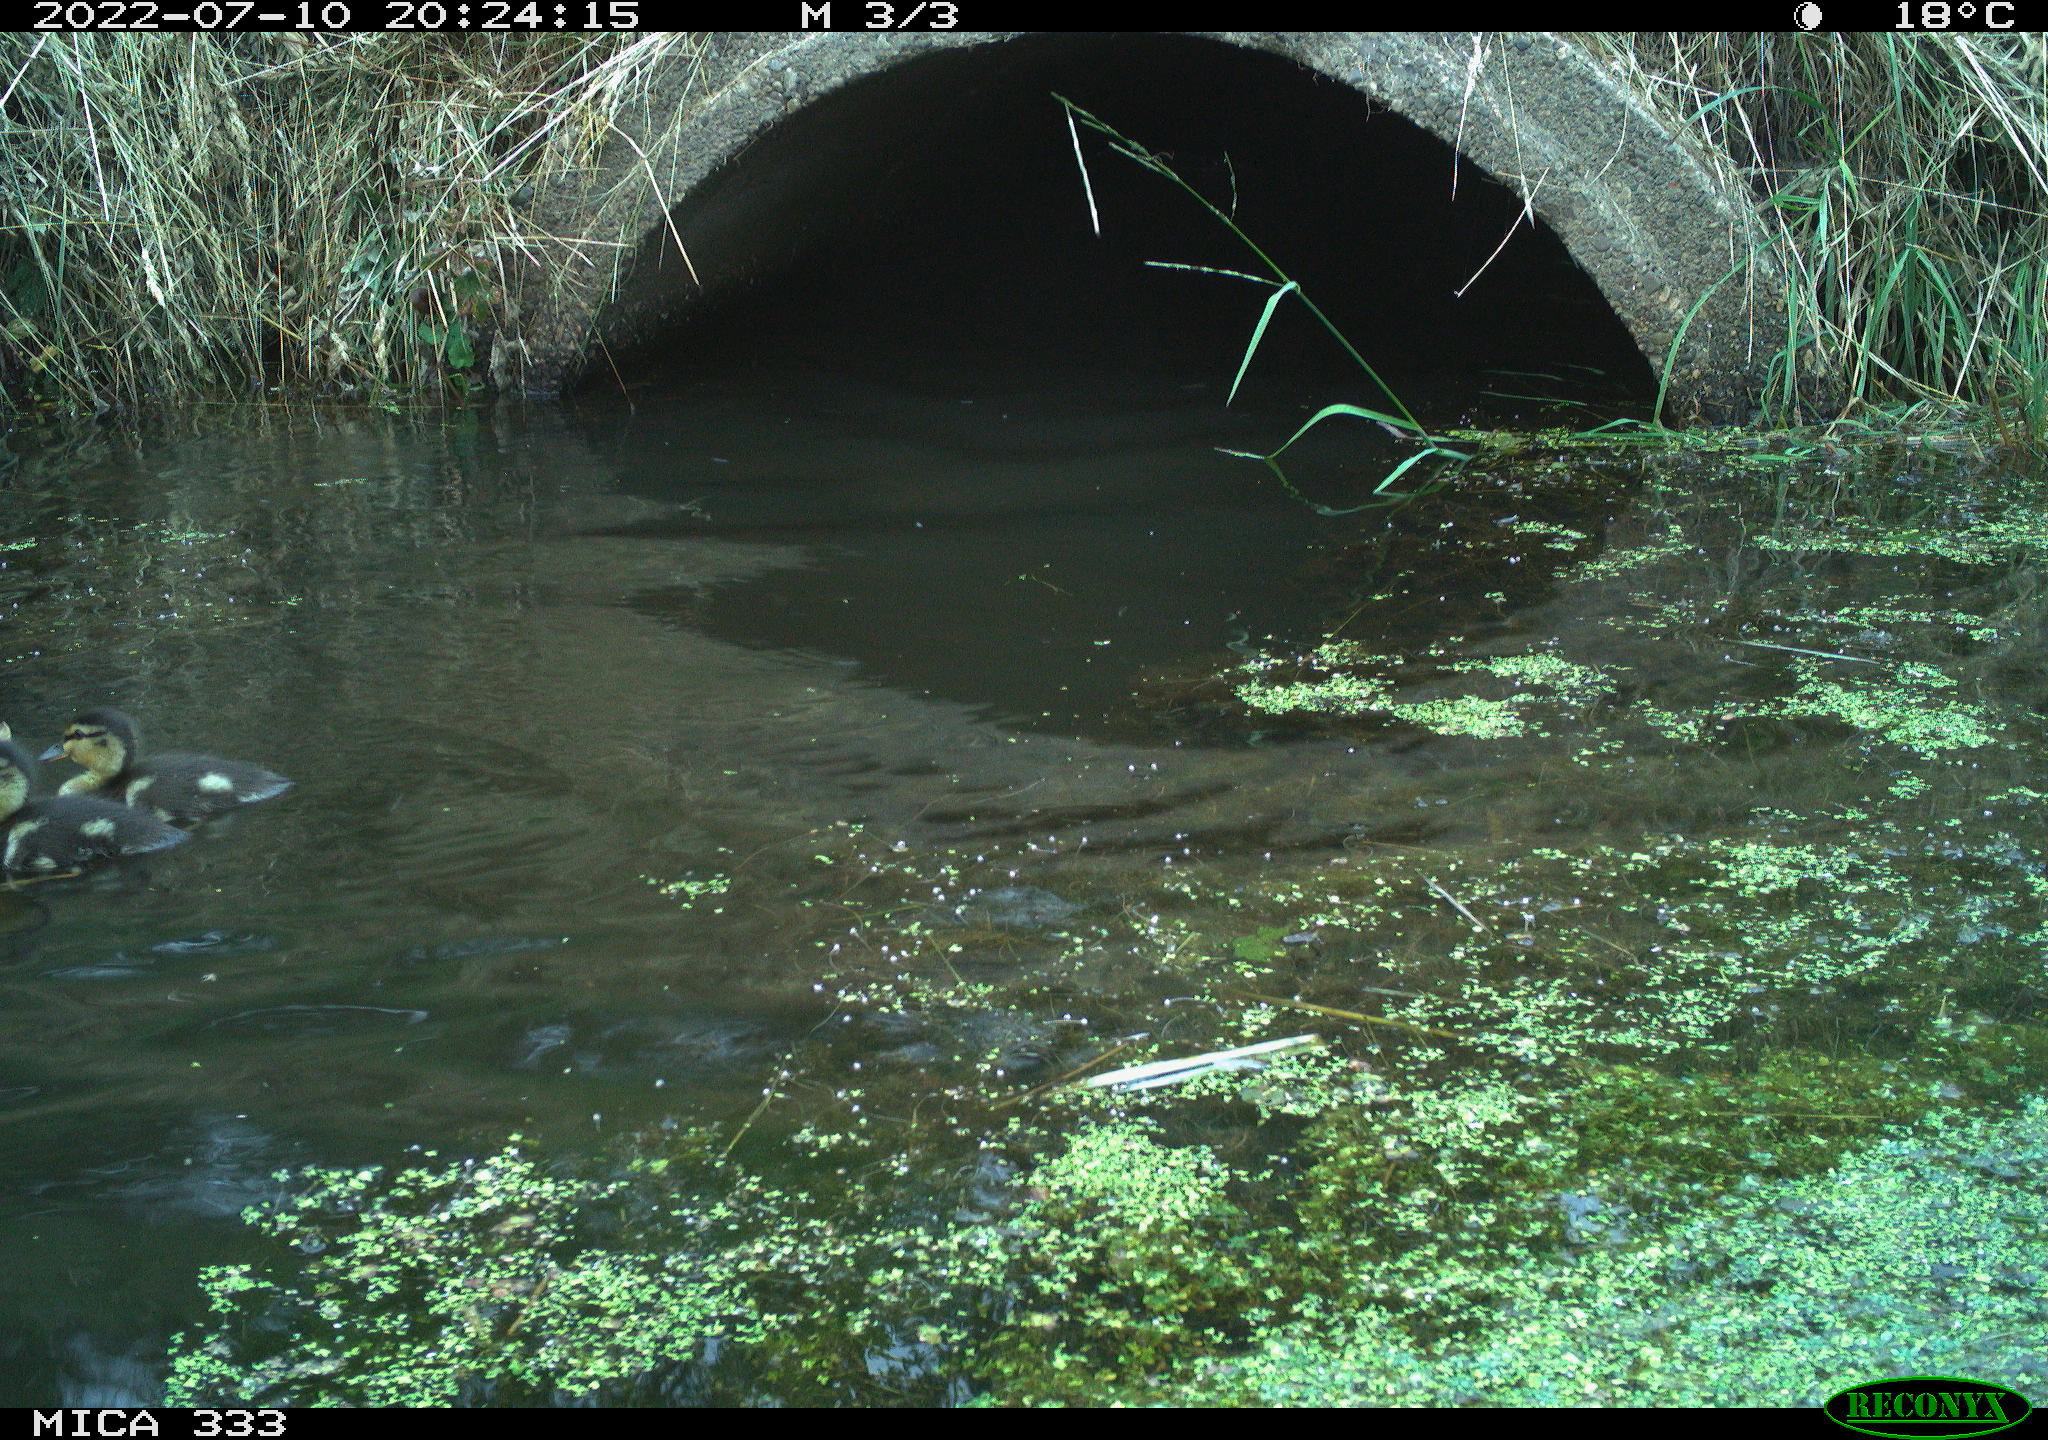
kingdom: Animalia
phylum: Chordata
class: Aves
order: Anseriformes
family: Anatidae
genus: Anas
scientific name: Anas platyrhynchos
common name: Mallard
